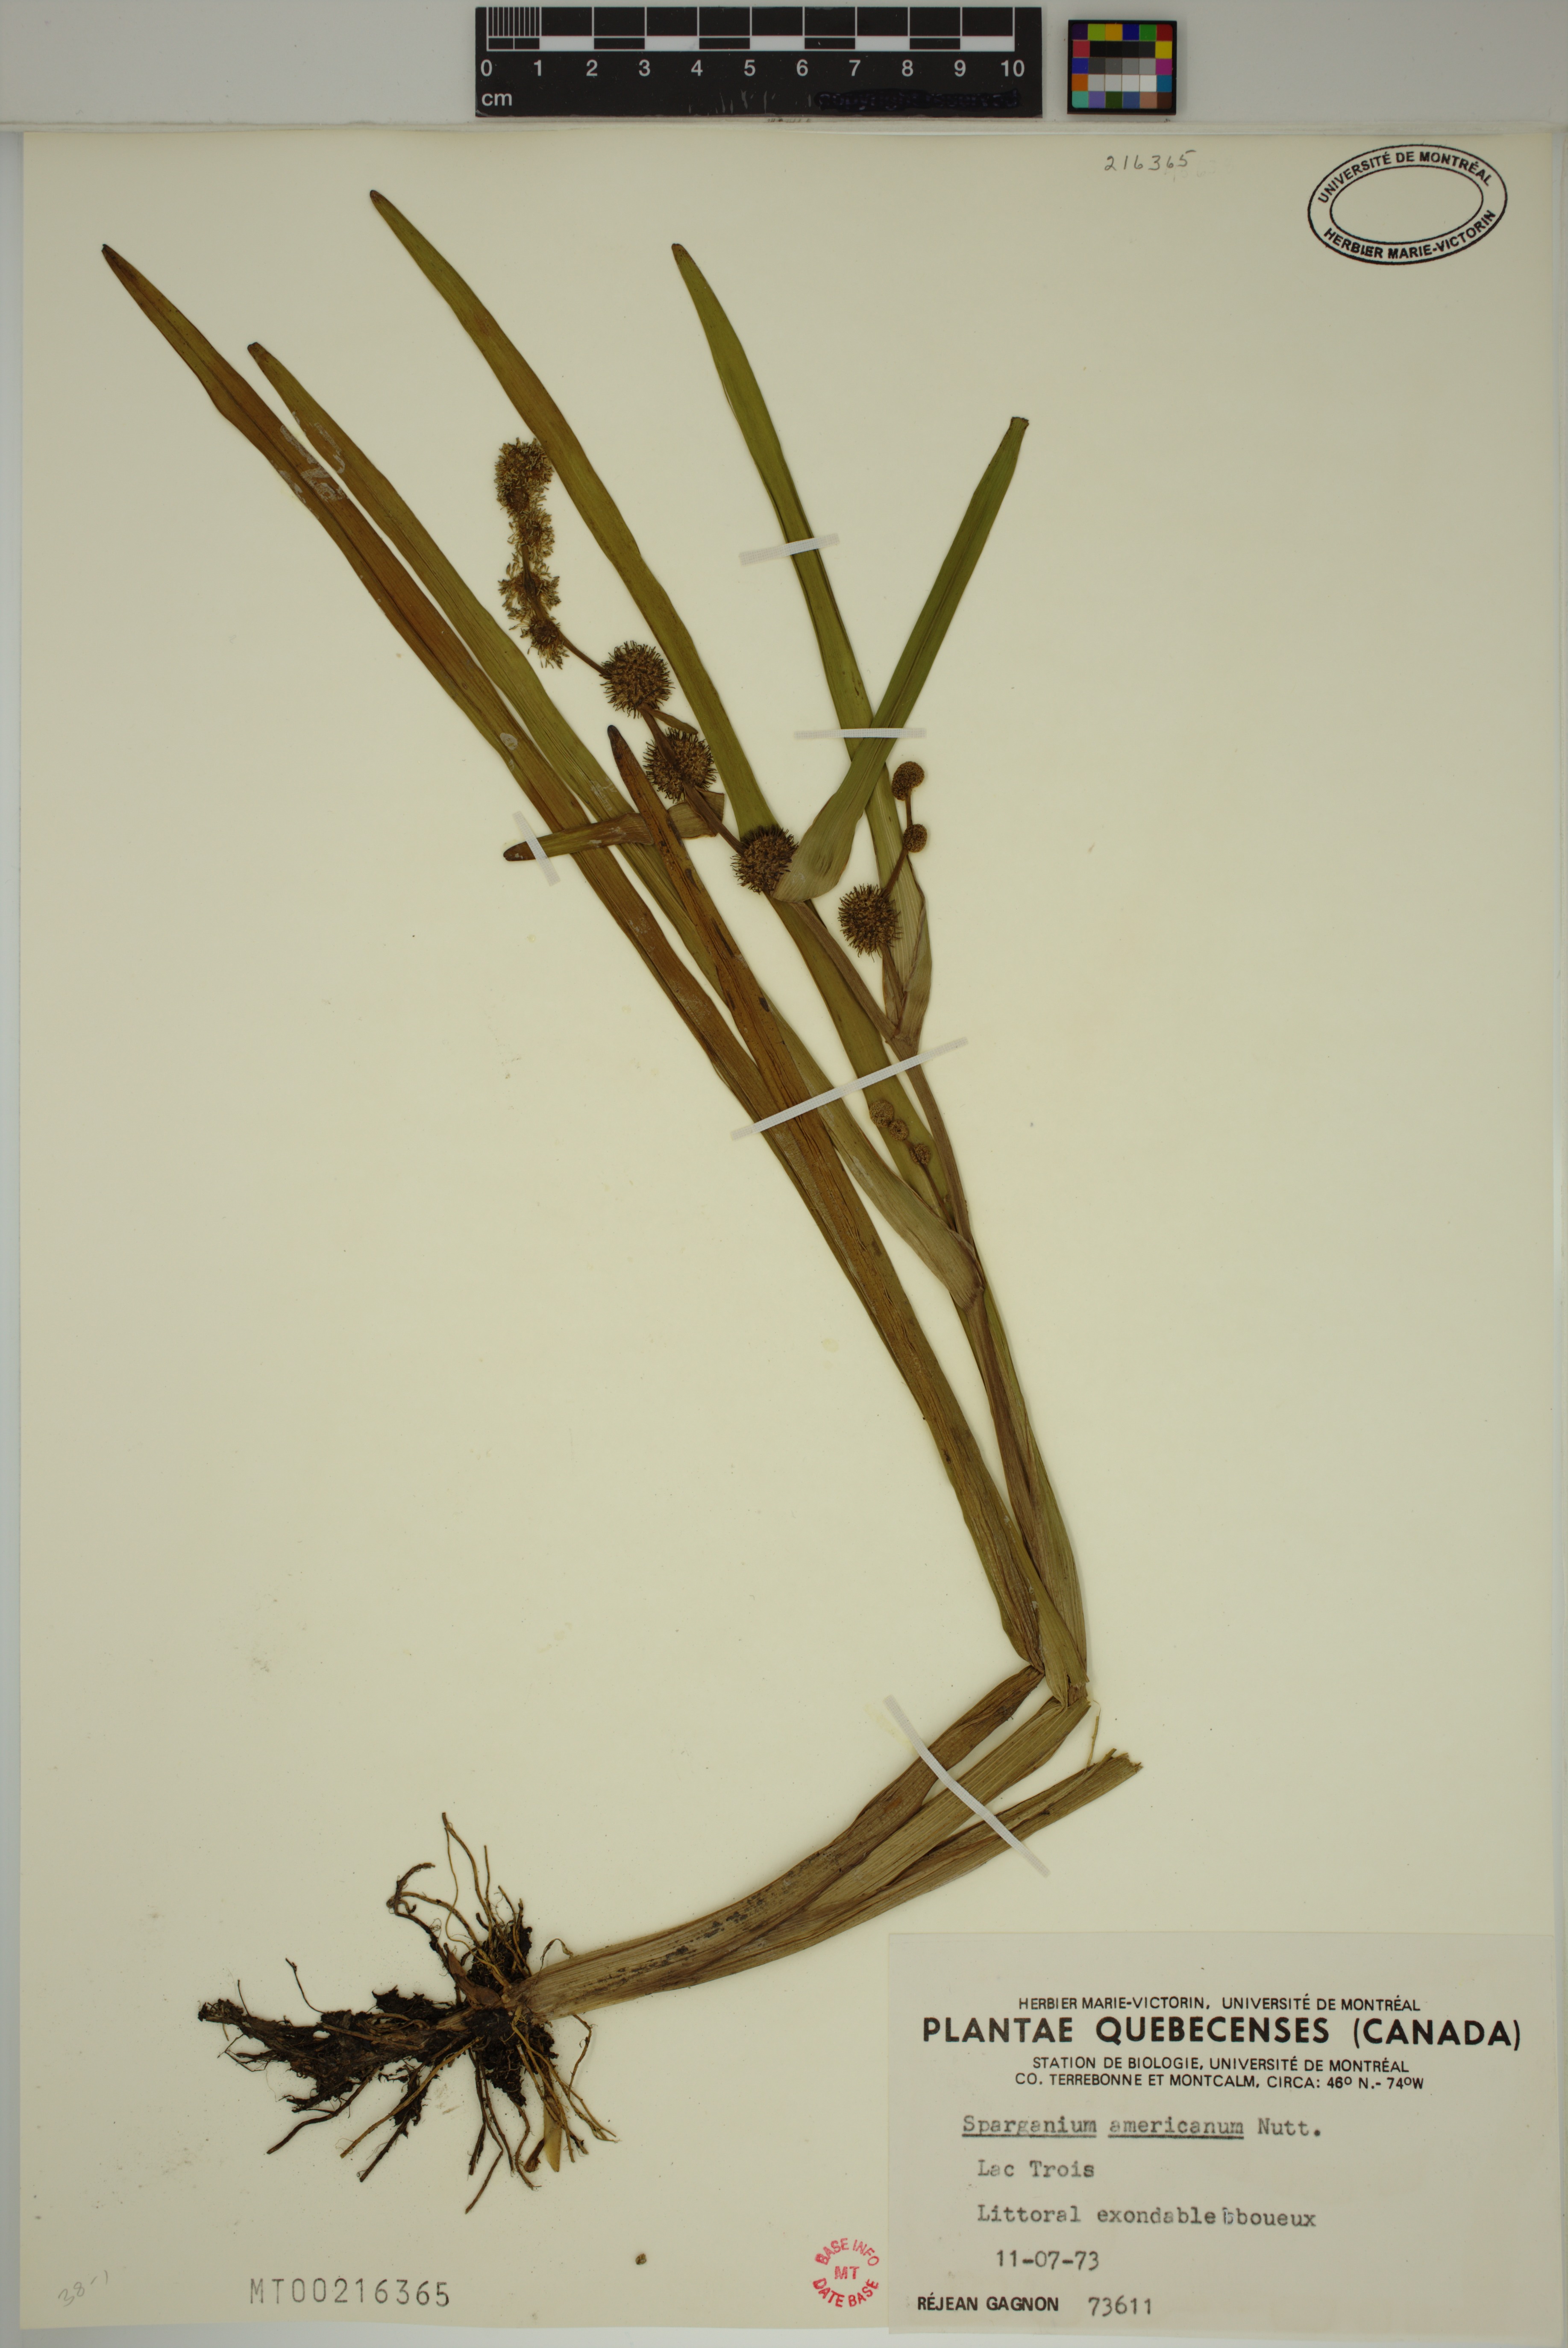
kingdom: Plantae
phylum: Tracheophyta
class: Liliopsida
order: Poales
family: Typhaceae
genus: Sparganium
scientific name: Sparganium americanum
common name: American burreed
